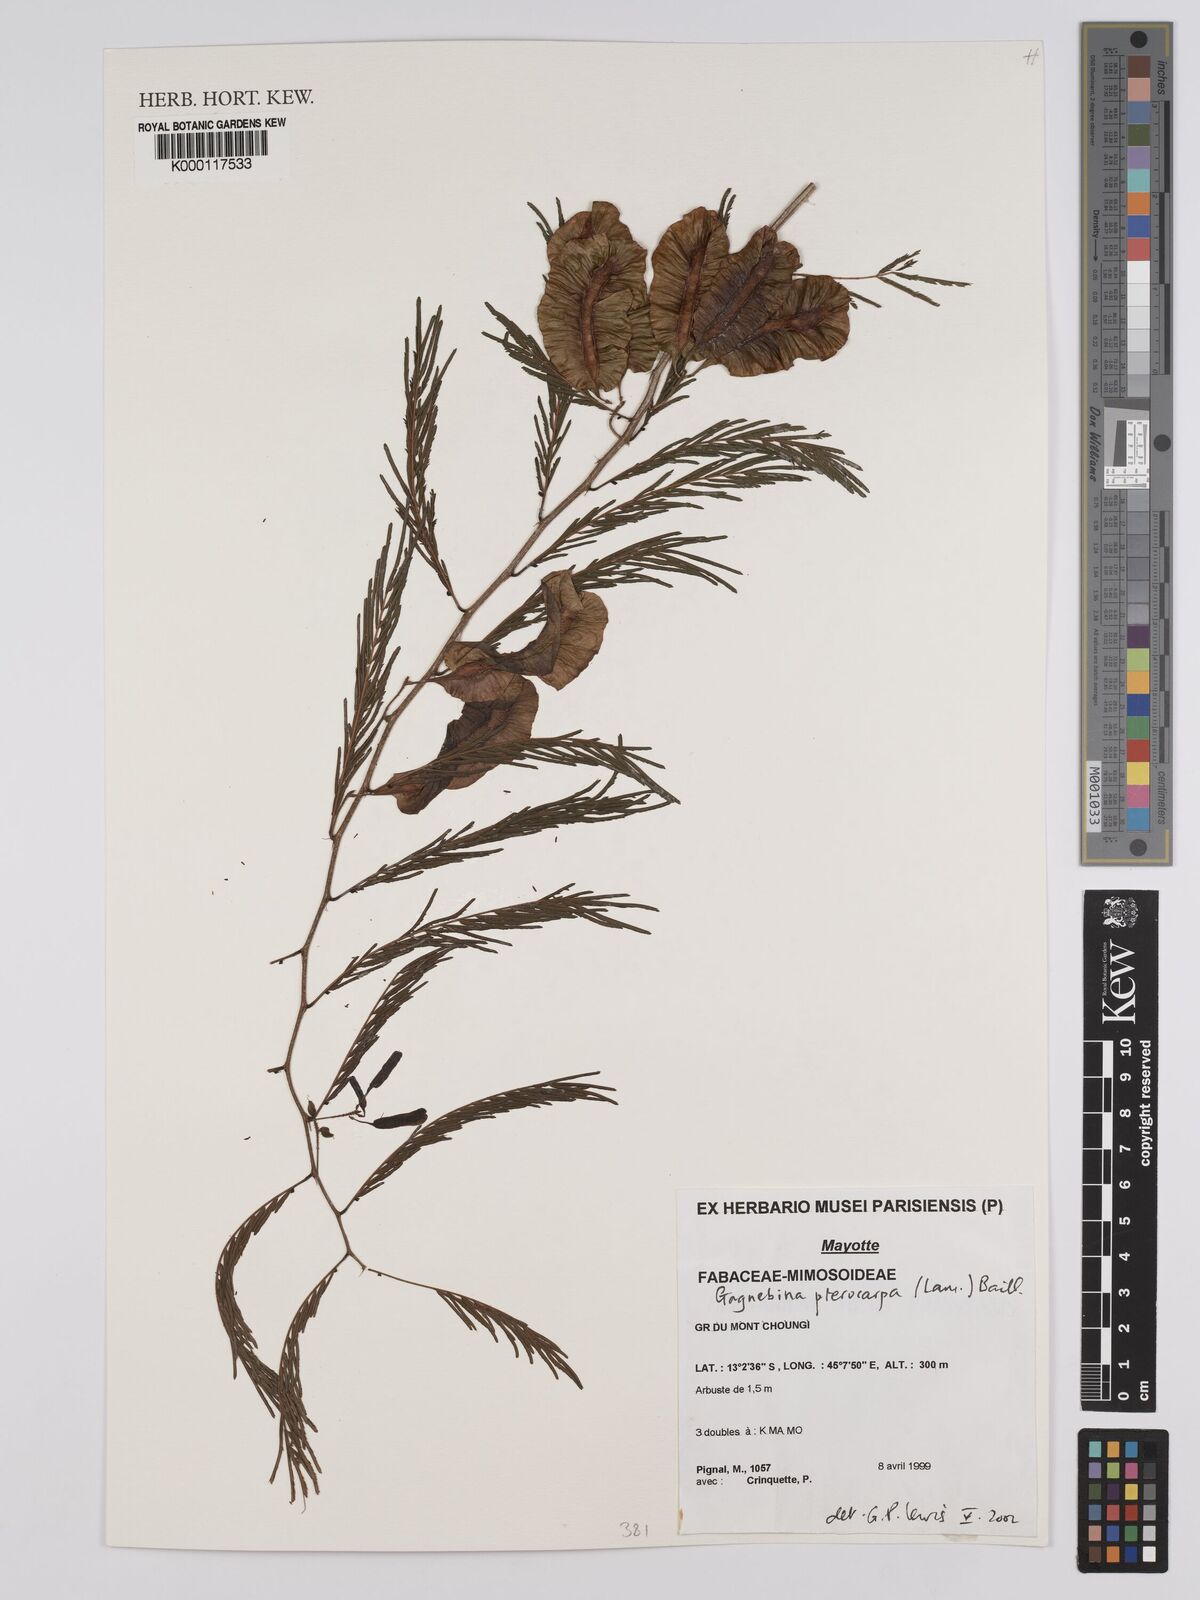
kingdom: Plantae
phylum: Tracheophyta
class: Magnoliopsida
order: Fabales
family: Fabaceae
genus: Gagnebina
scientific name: Gagnebina pterocarpa
